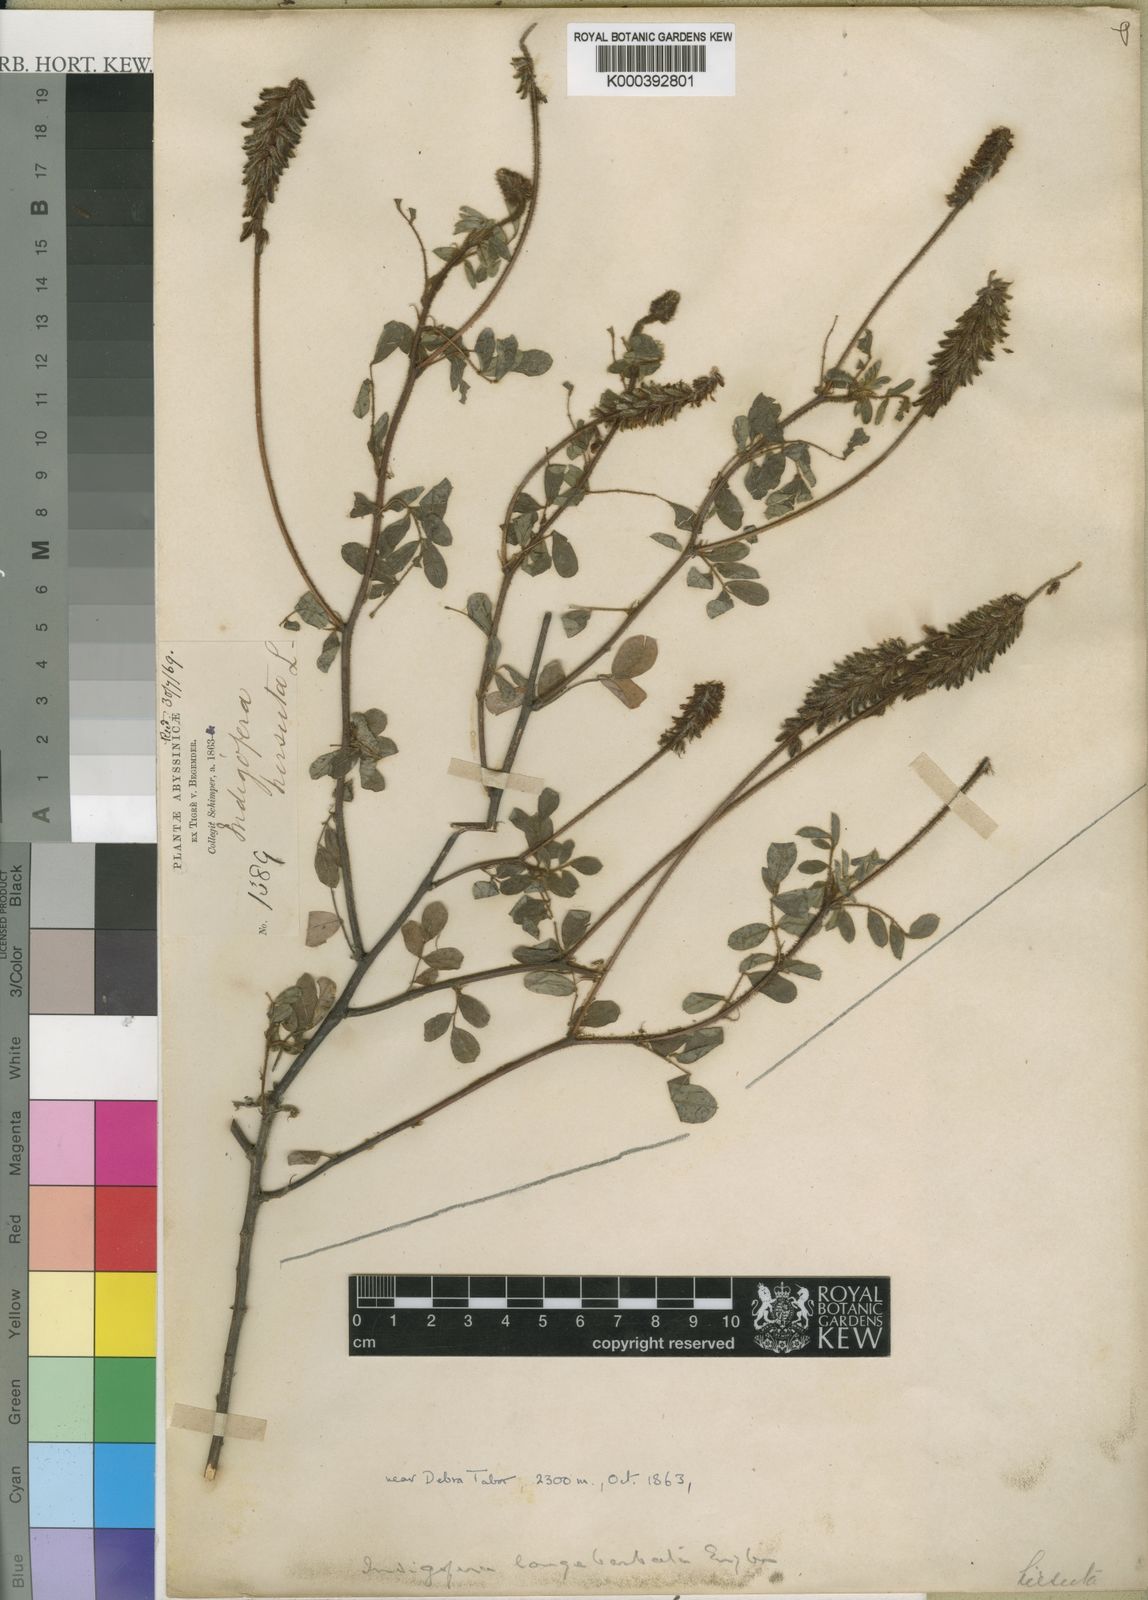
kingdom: Plantae
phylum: Tracheophyta
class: Magnoliopsida
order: Fabales
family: Fabaceae
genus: Indigofera
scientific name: Indigofera
